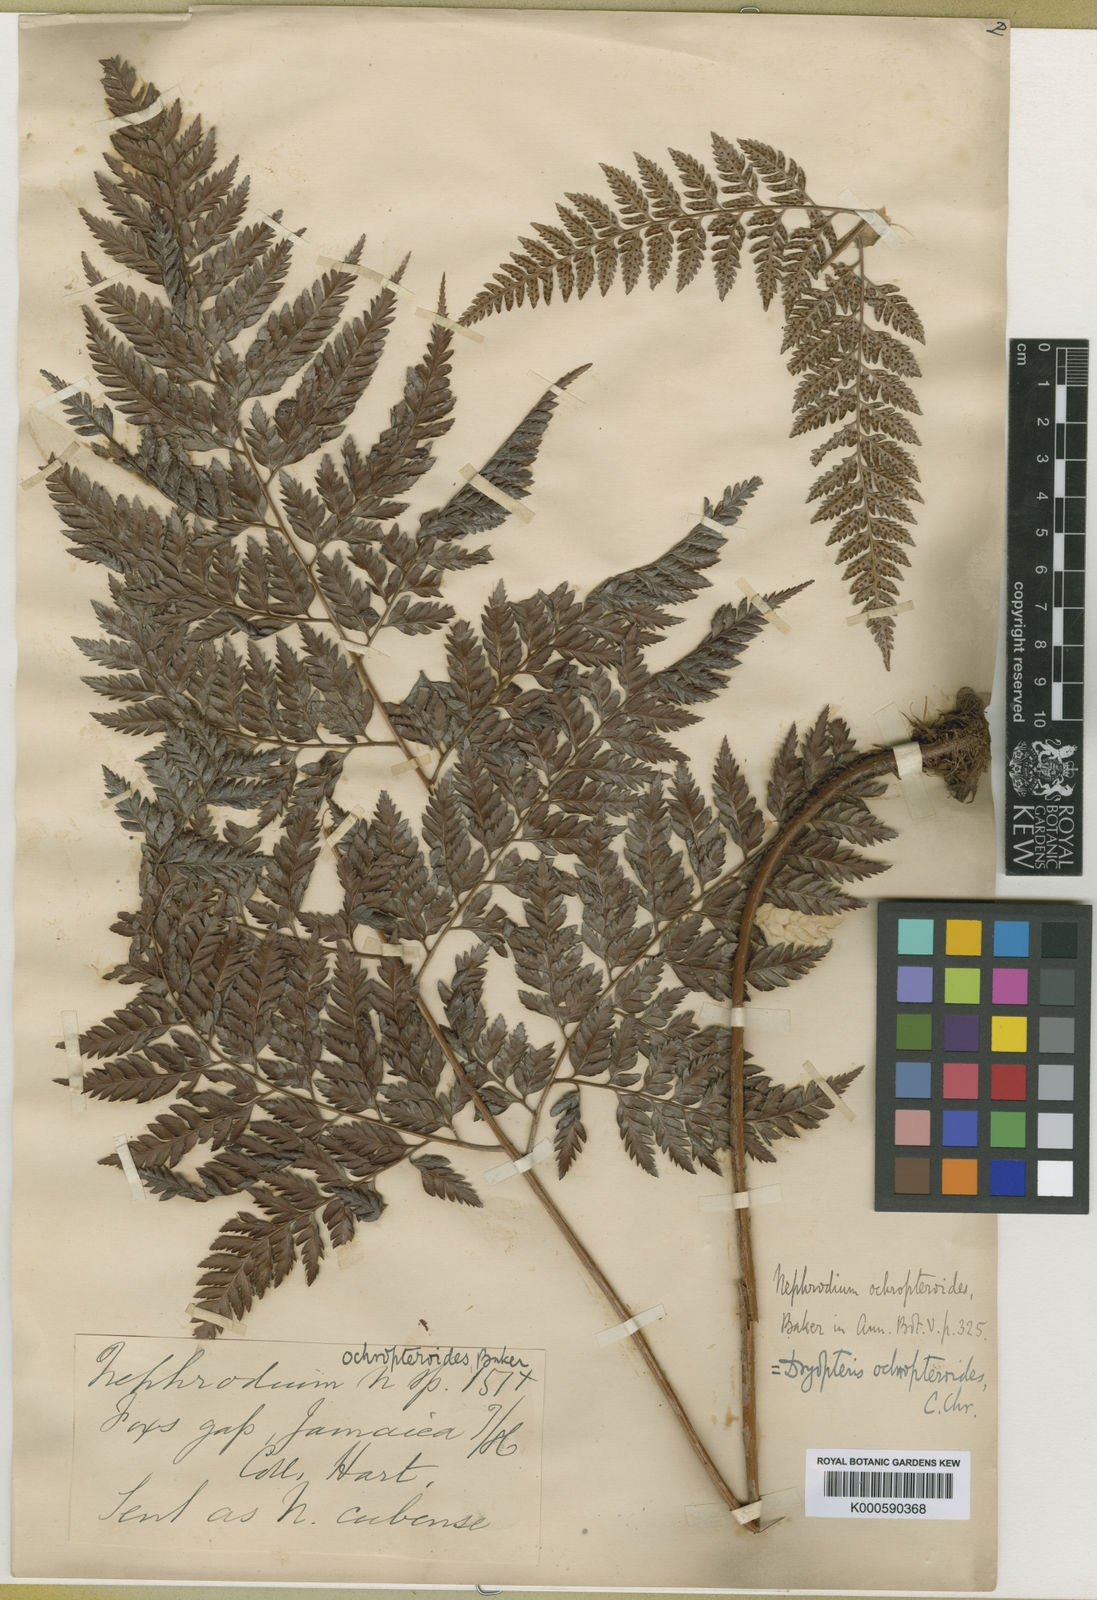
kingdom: Plantae
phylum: Tracheophyta
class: Polypodiopsida
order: Polypodiales
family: Dryopteridaceae
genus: Olfersia
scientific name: Olfersia ochropteroides
